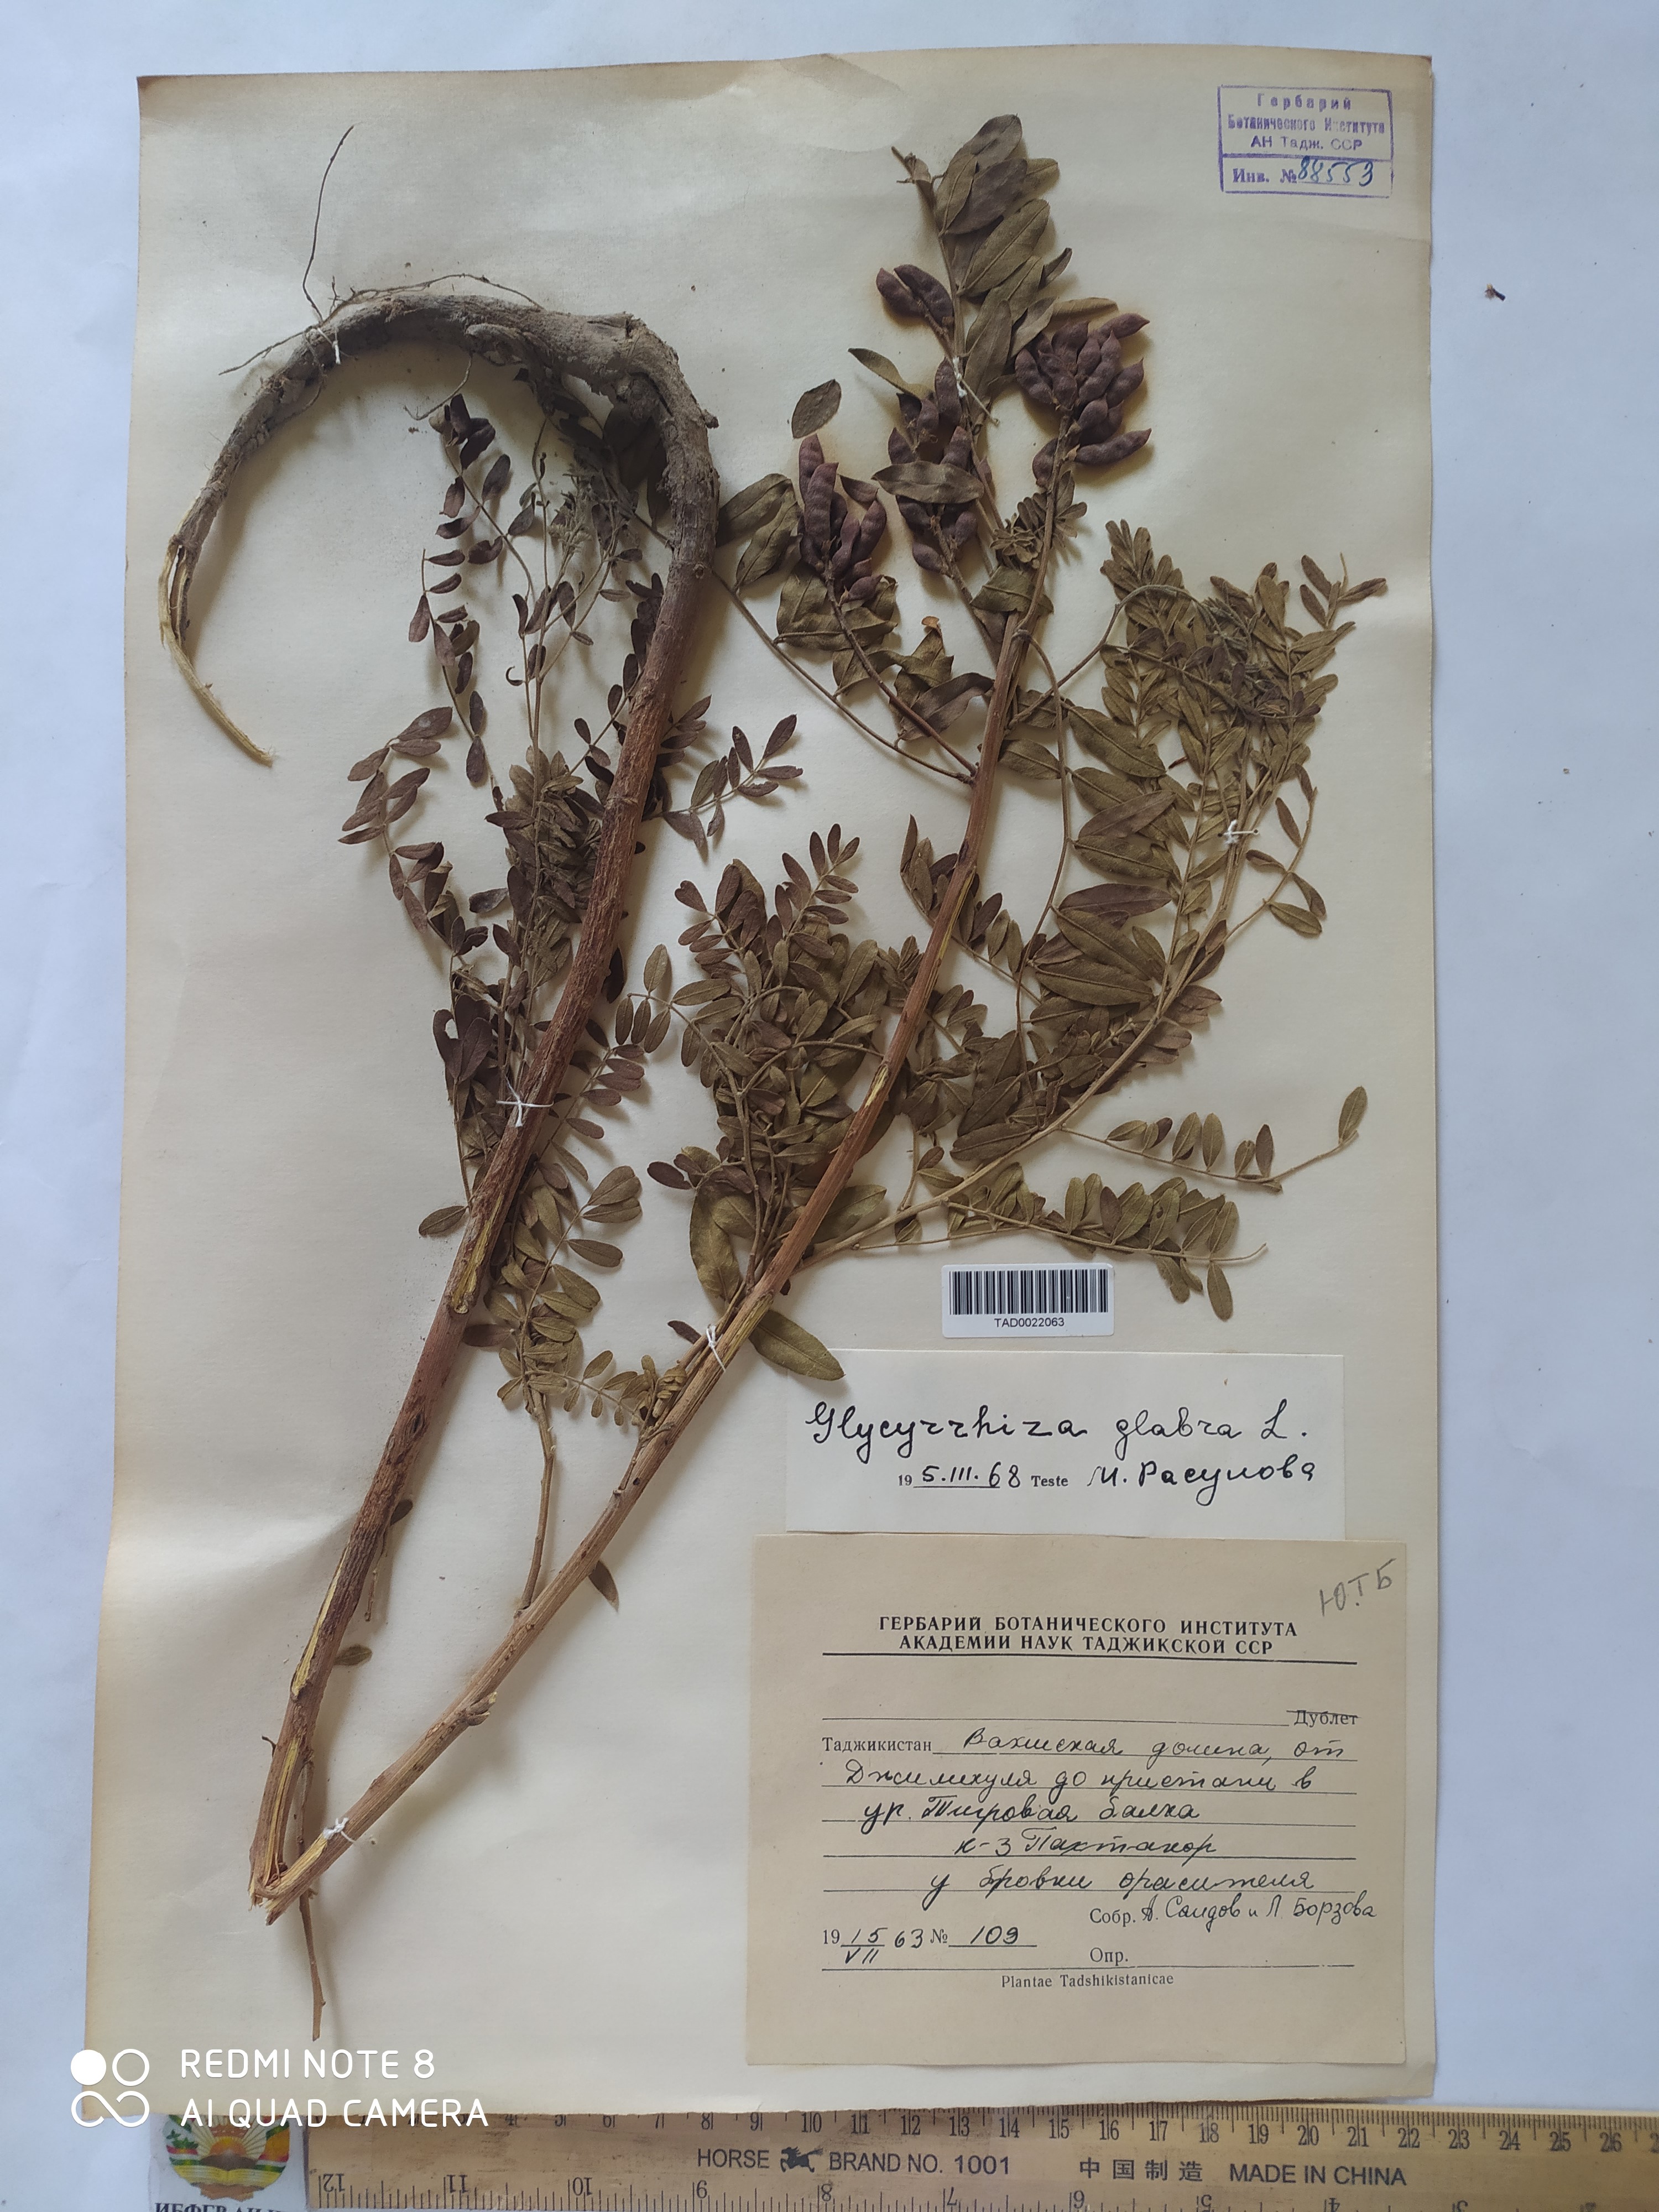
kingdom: Plantae
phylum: Tracheophyta
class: Magnoliopsida
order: Fabales
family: Fabaceae
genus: Glycyrrhiza
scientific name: Glycyrrhiza glabra
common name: Liquorice
